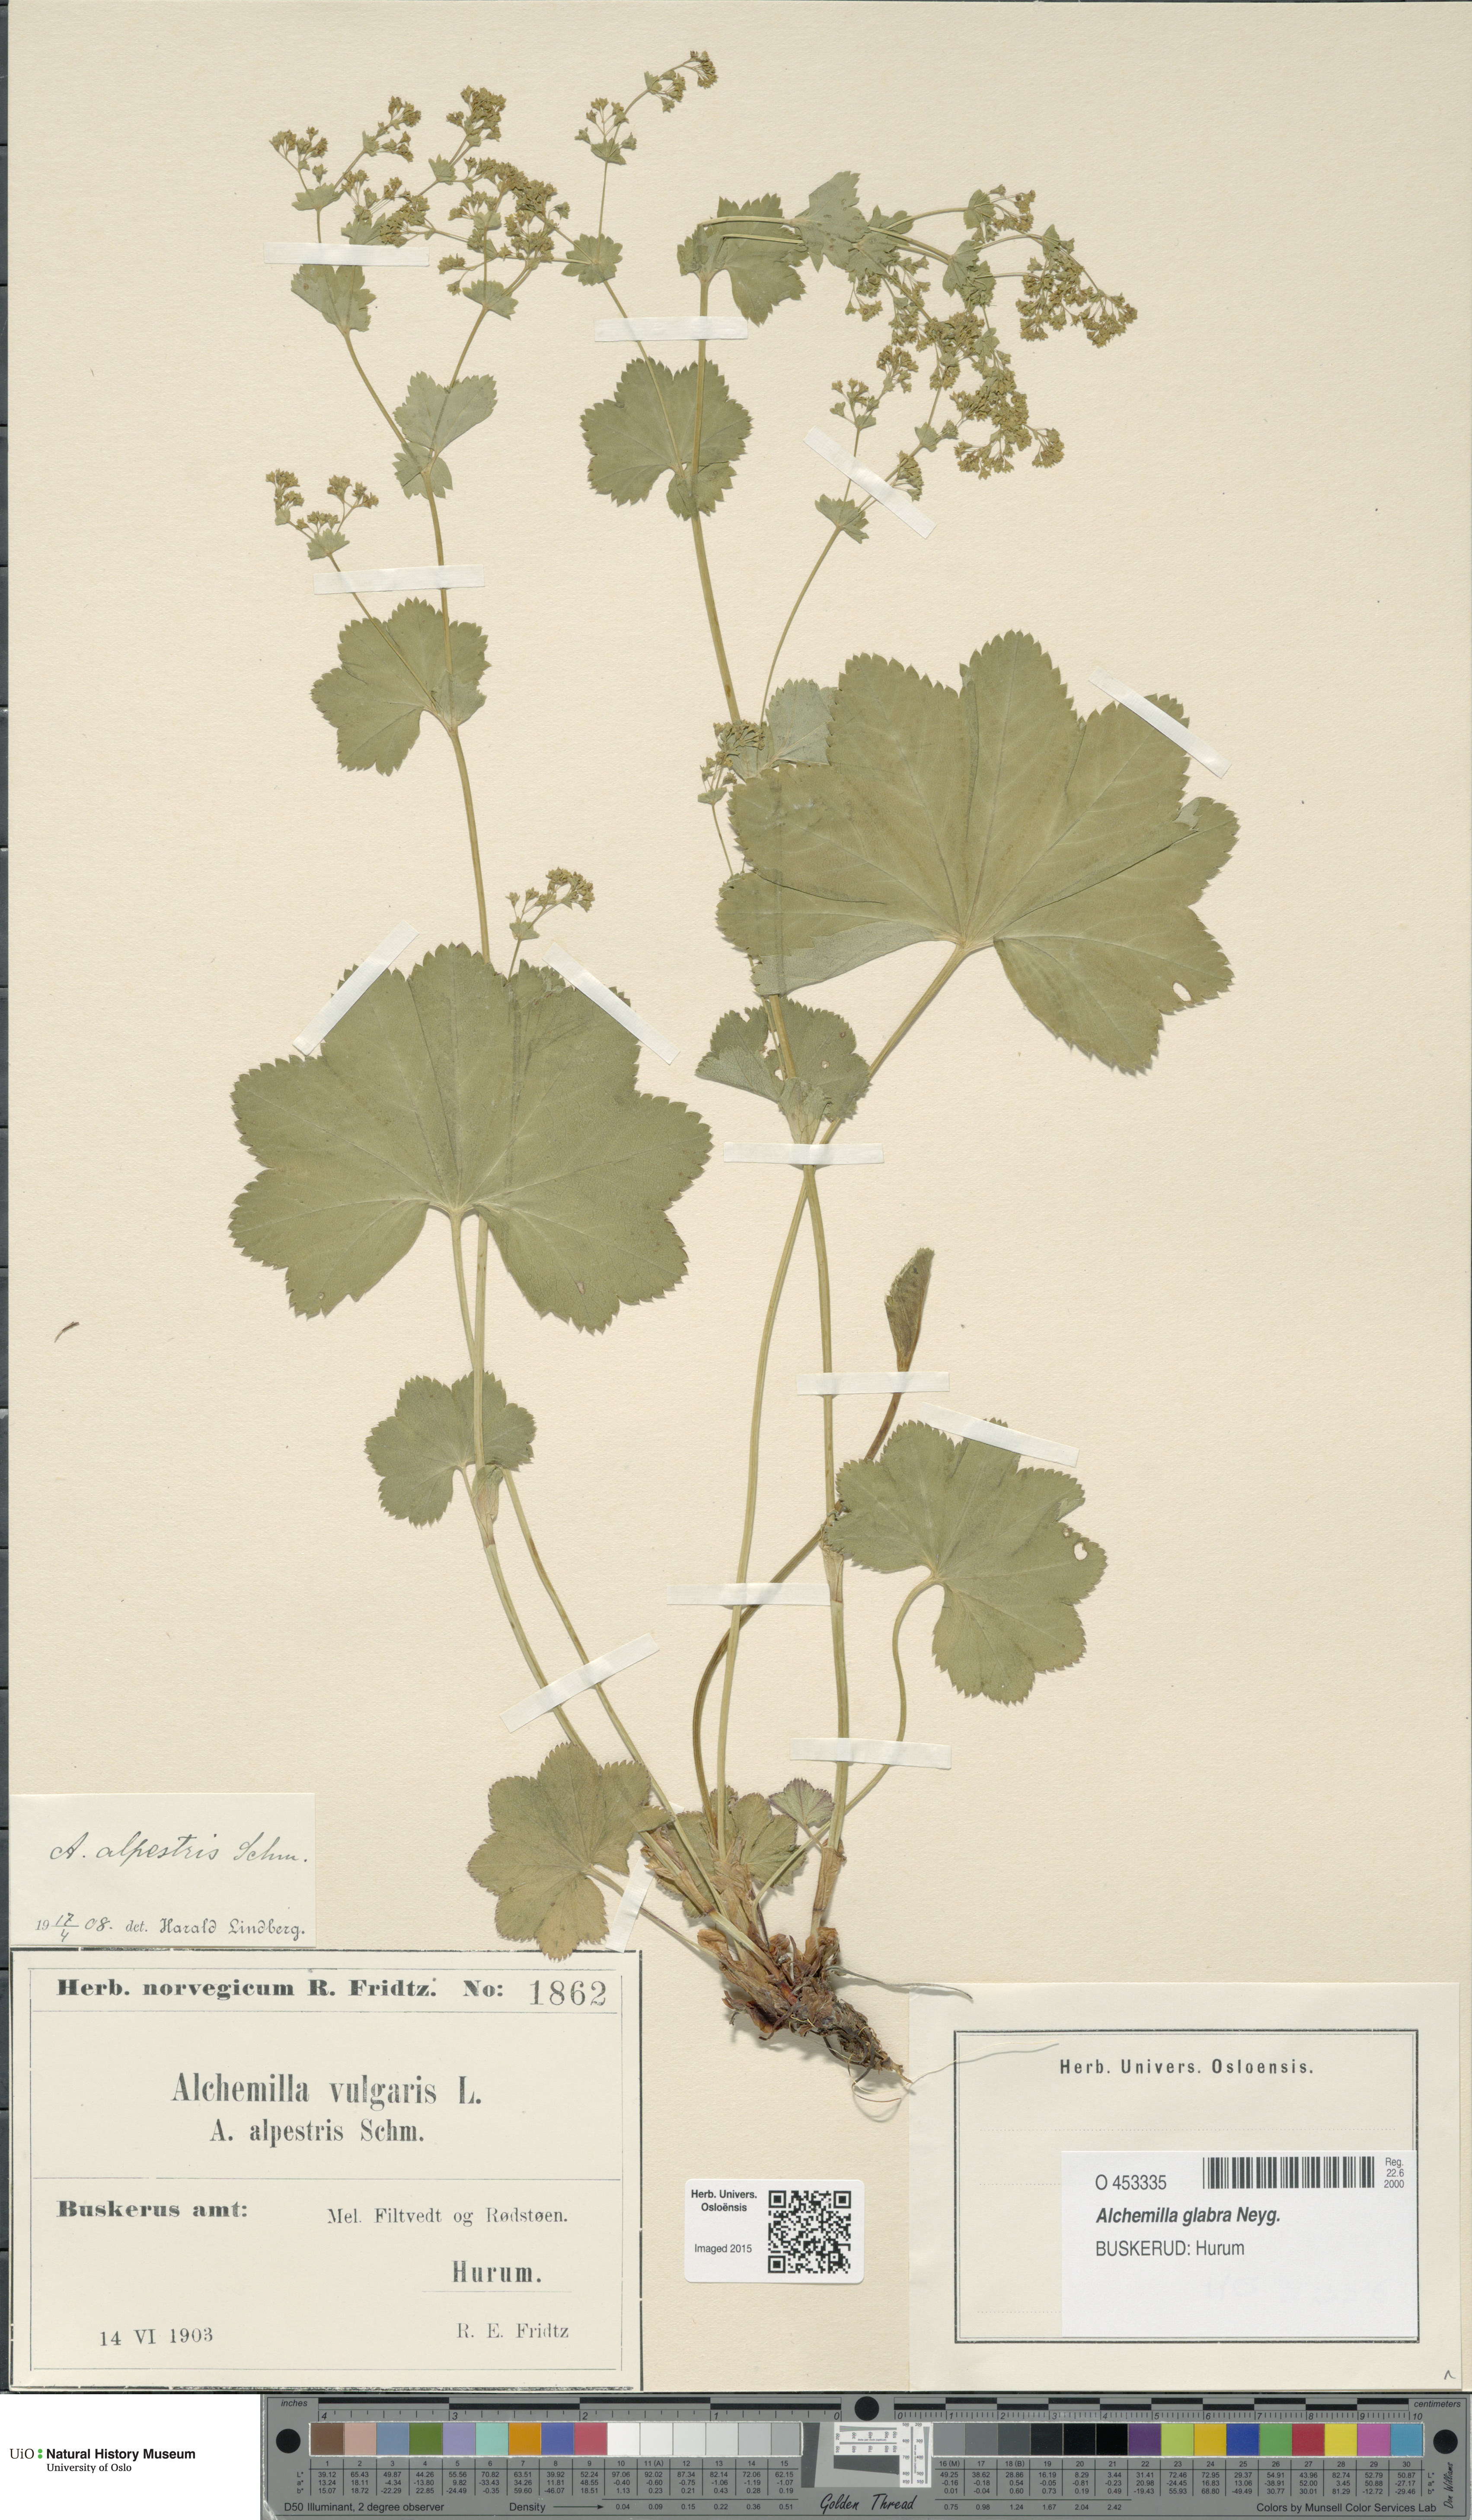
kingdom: Plantae
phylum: Tracheophyta
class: Magnoliopsida
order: Rosales
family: Rosaceae
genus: Alchemilla
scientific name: Alchemilla glabra
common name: Smooth lady's-mantle
